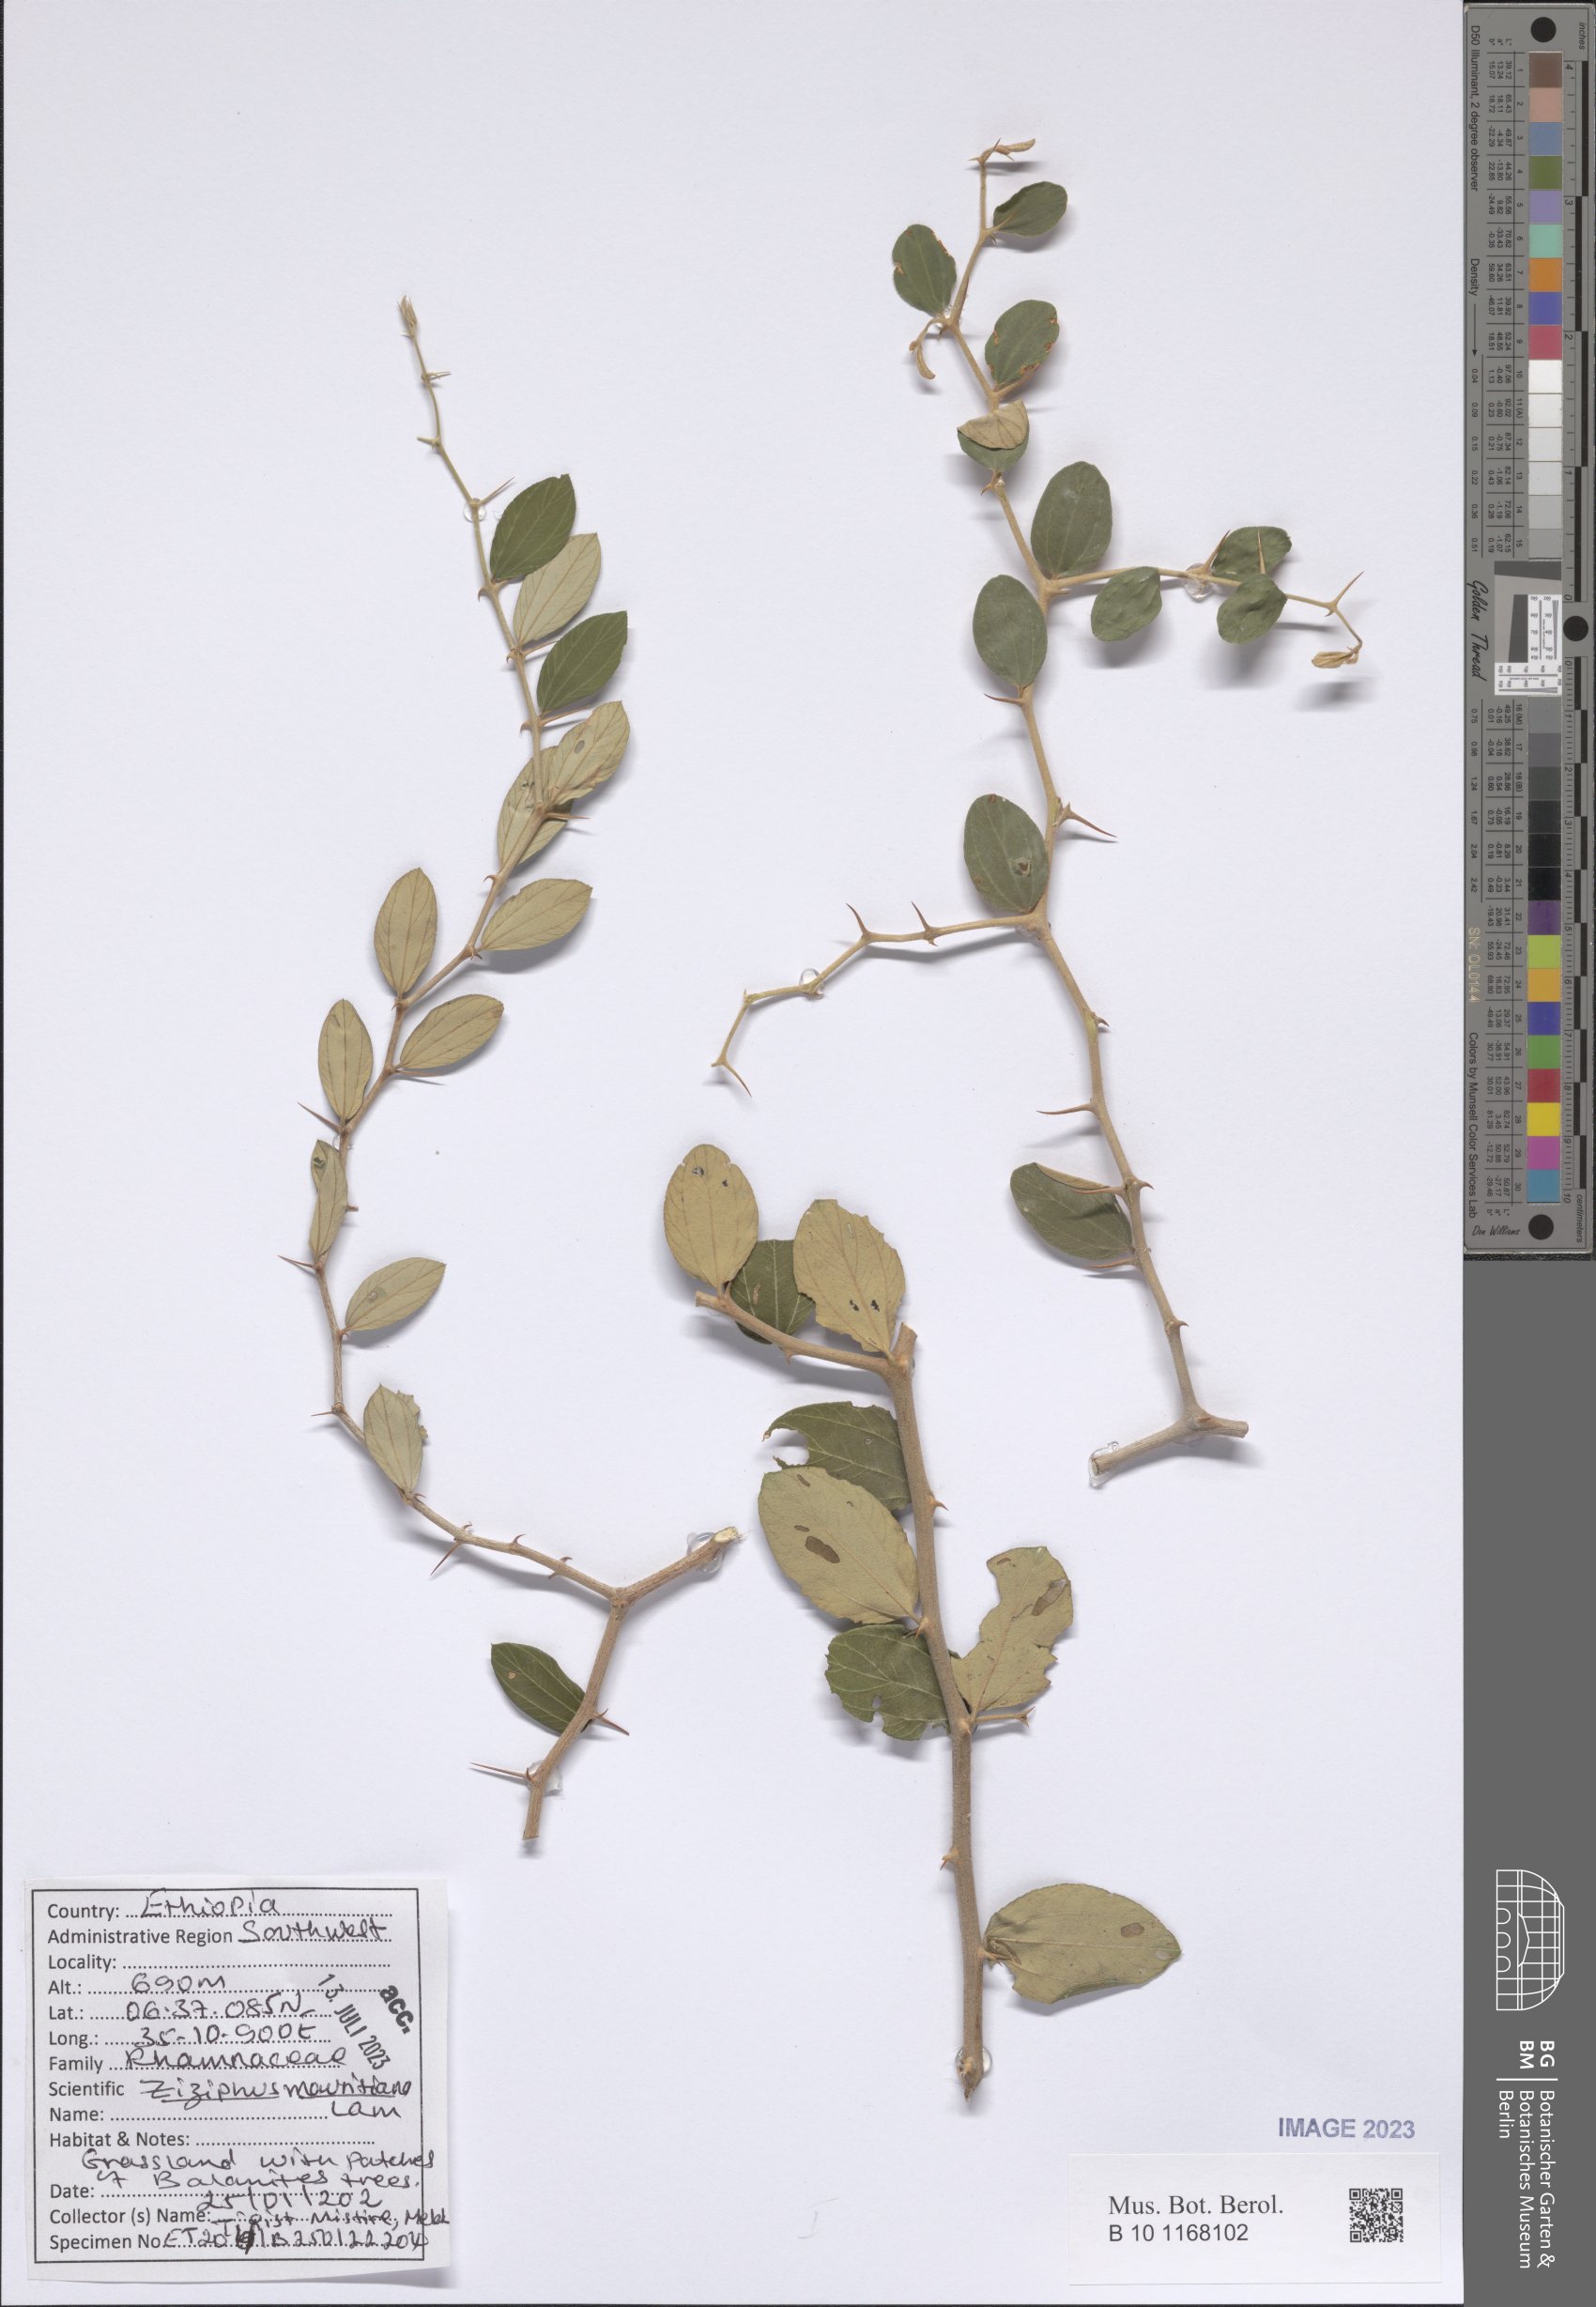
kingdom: Plantae
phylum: Tracheophyta
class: Magnoliopsida
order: Rosales
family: Rhamnaceae
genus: Ziziphus
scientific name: Ziziphus mauritiana
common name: Indian jujube
